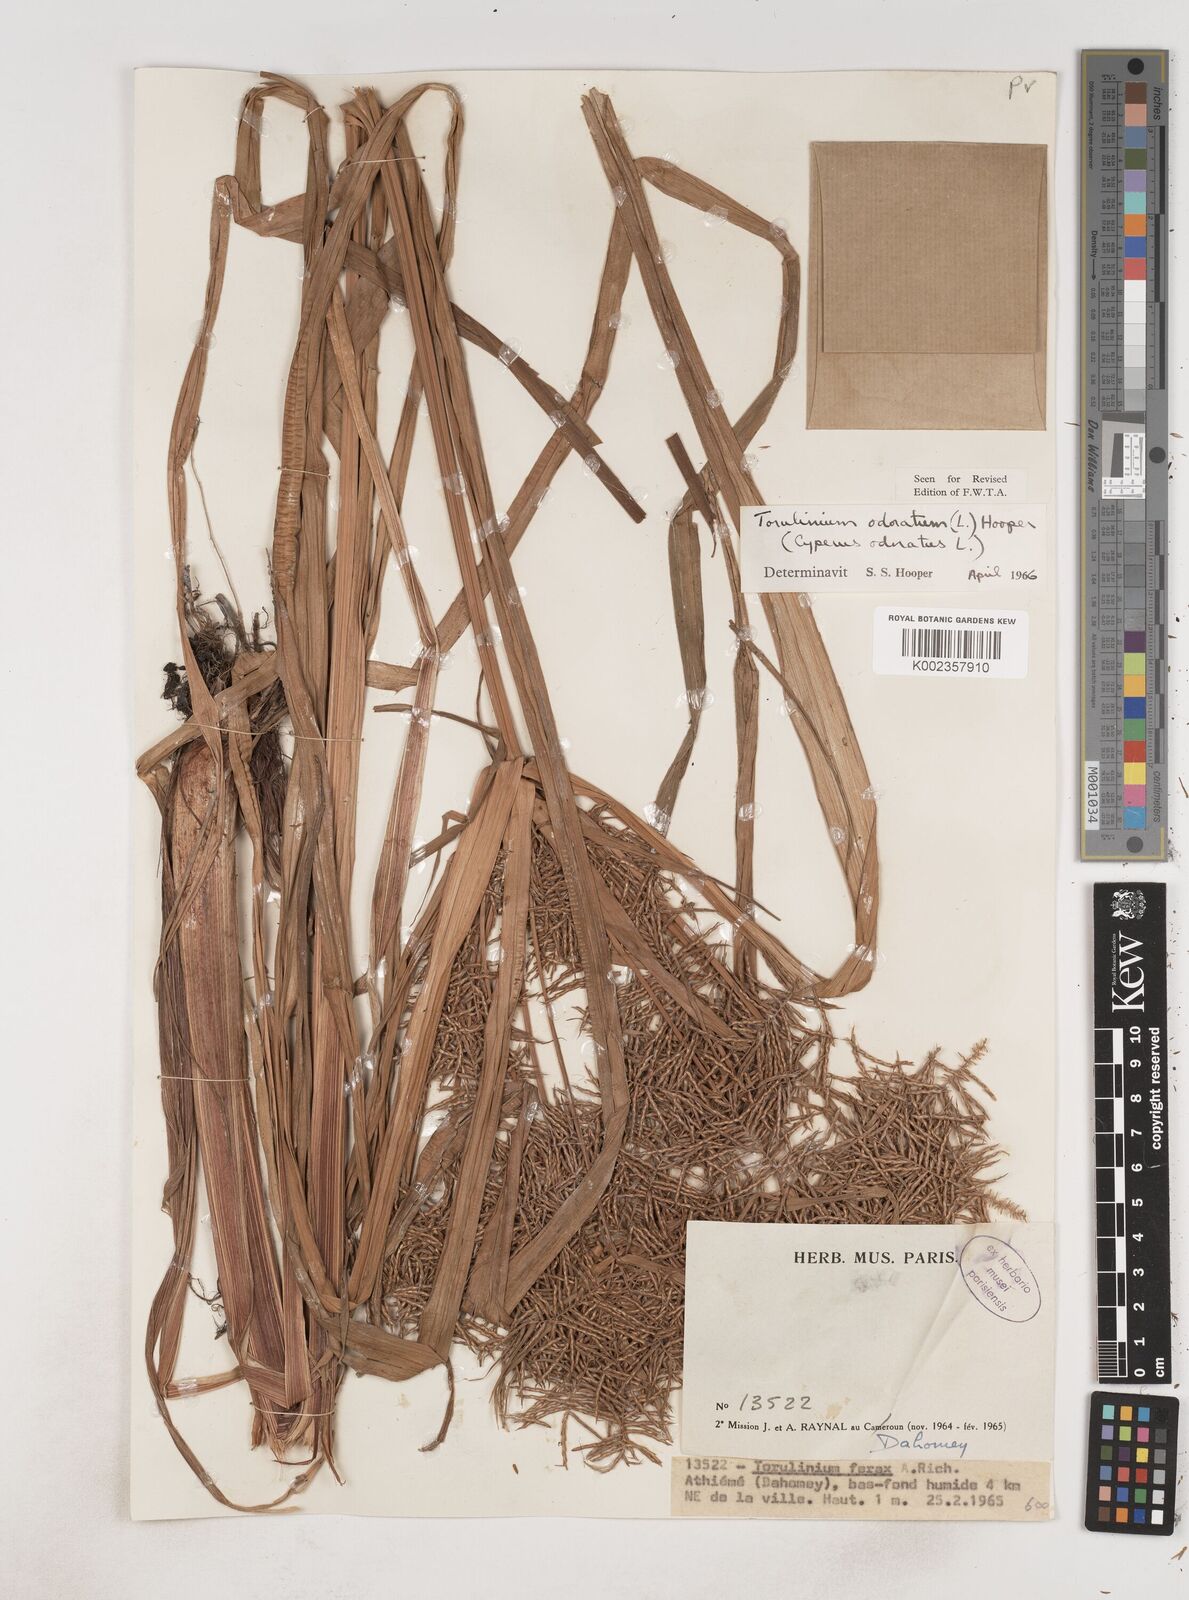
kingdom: Plantae
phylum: Tracheophyta
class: Liliopsida
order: Poales
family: Cyperaceae
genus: Cyperus
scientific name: Cyperus odoratus
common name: Fragrant flatsedge
